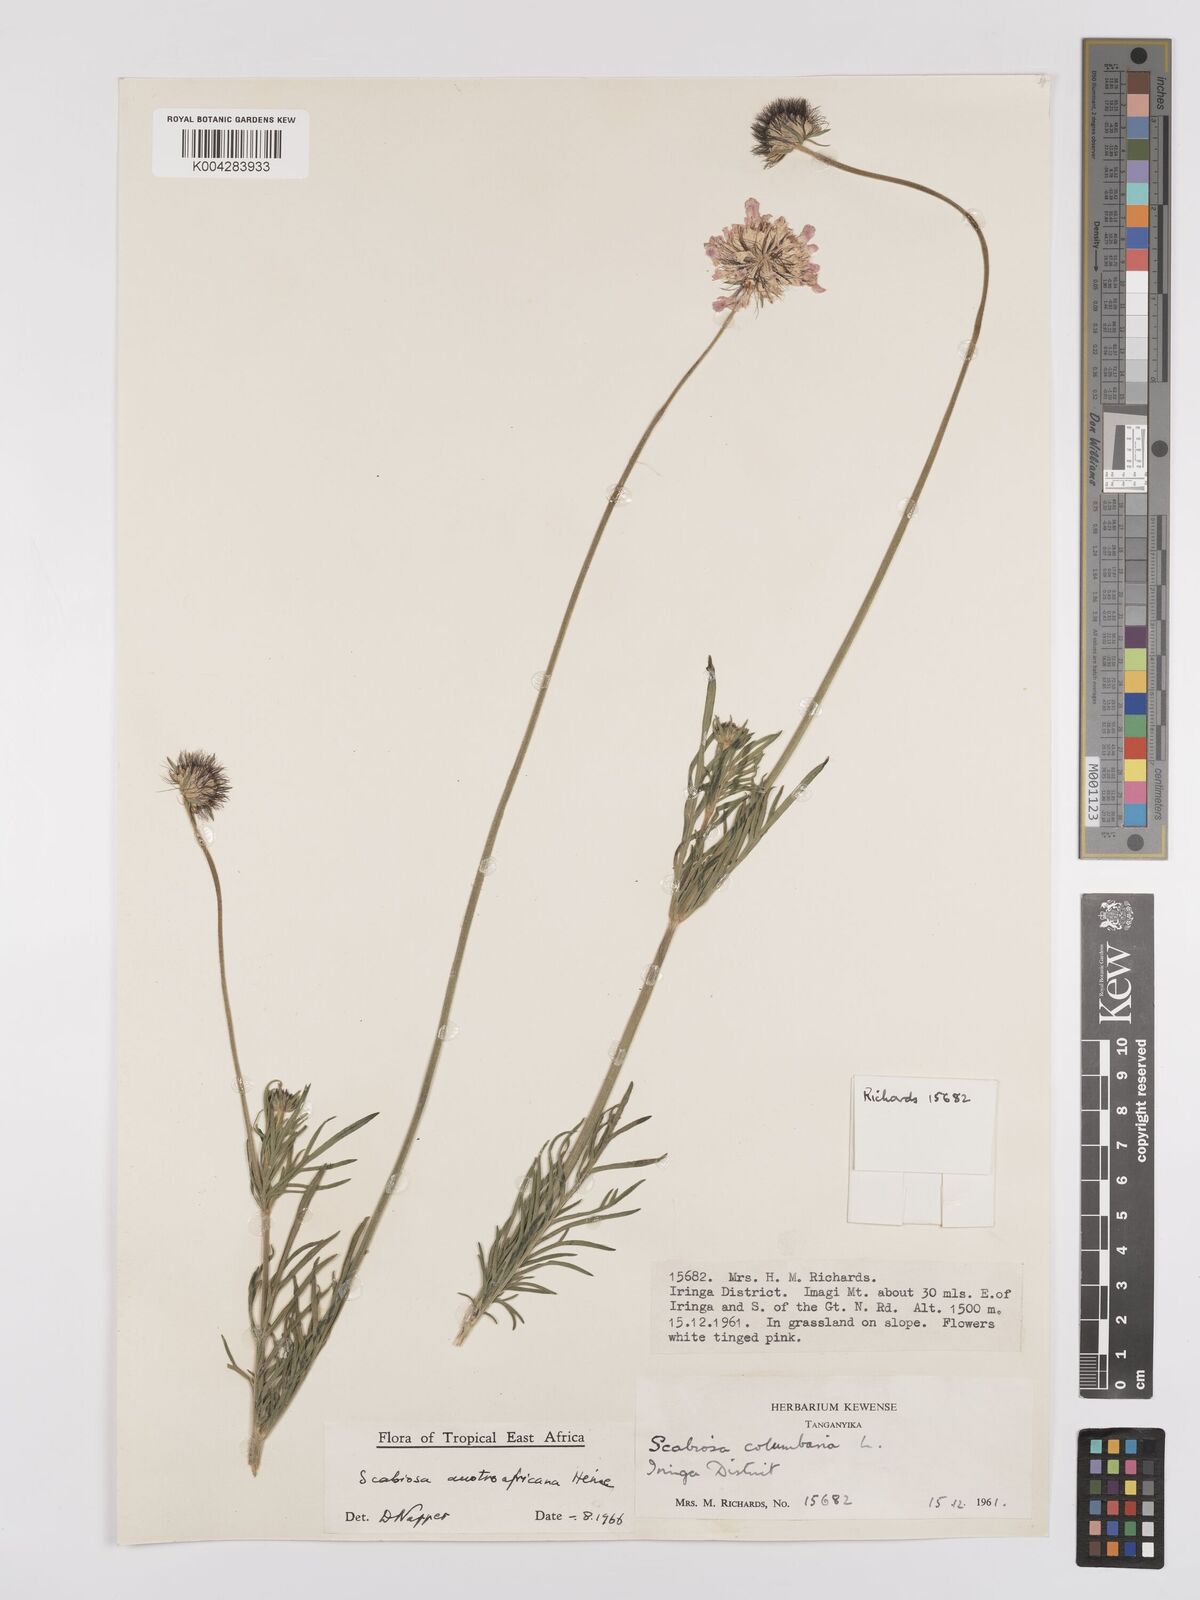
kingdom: Plantae
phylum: Tracheophyta
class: Magnoliopsida
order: Dipsacales
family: Caprifoliaceae
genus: Scabiosa
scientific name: Scabiosa austroafricana
